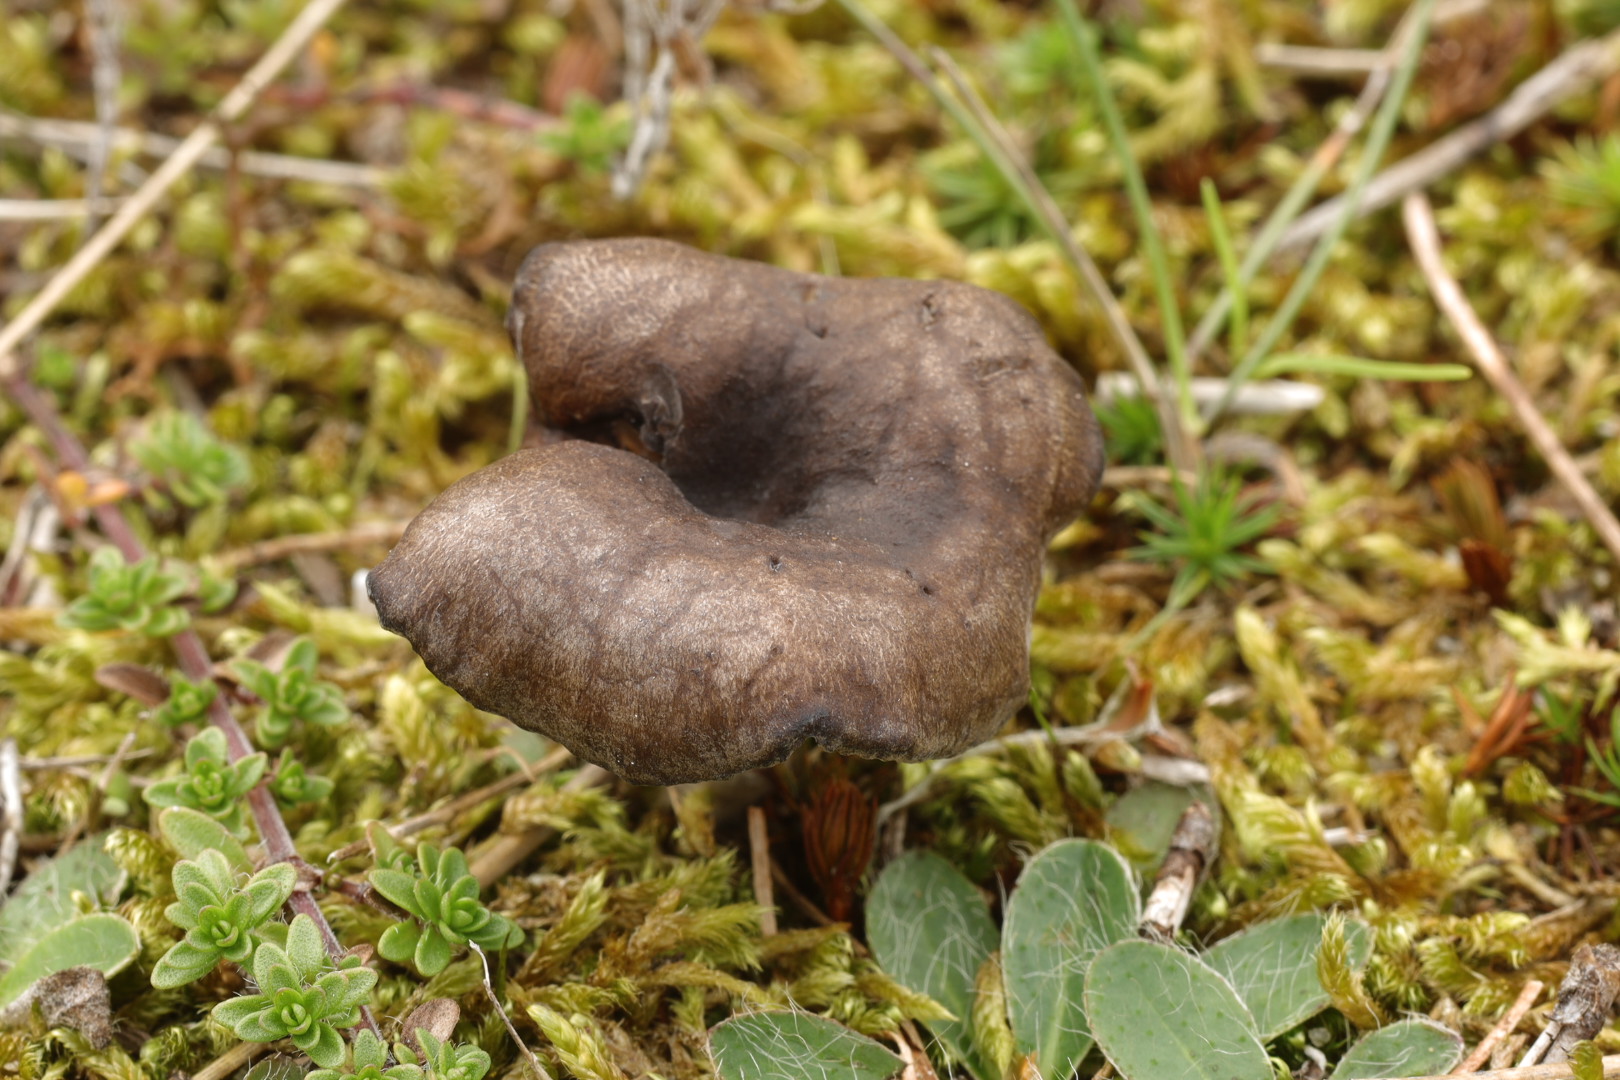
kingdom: Fungi
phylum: Basidiomycota
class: Agaricomycetes
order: Agaricales
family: Entolomataceae
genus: Clitopilus
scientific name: Clitopilus caelatus
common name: gråbrun troldhat
